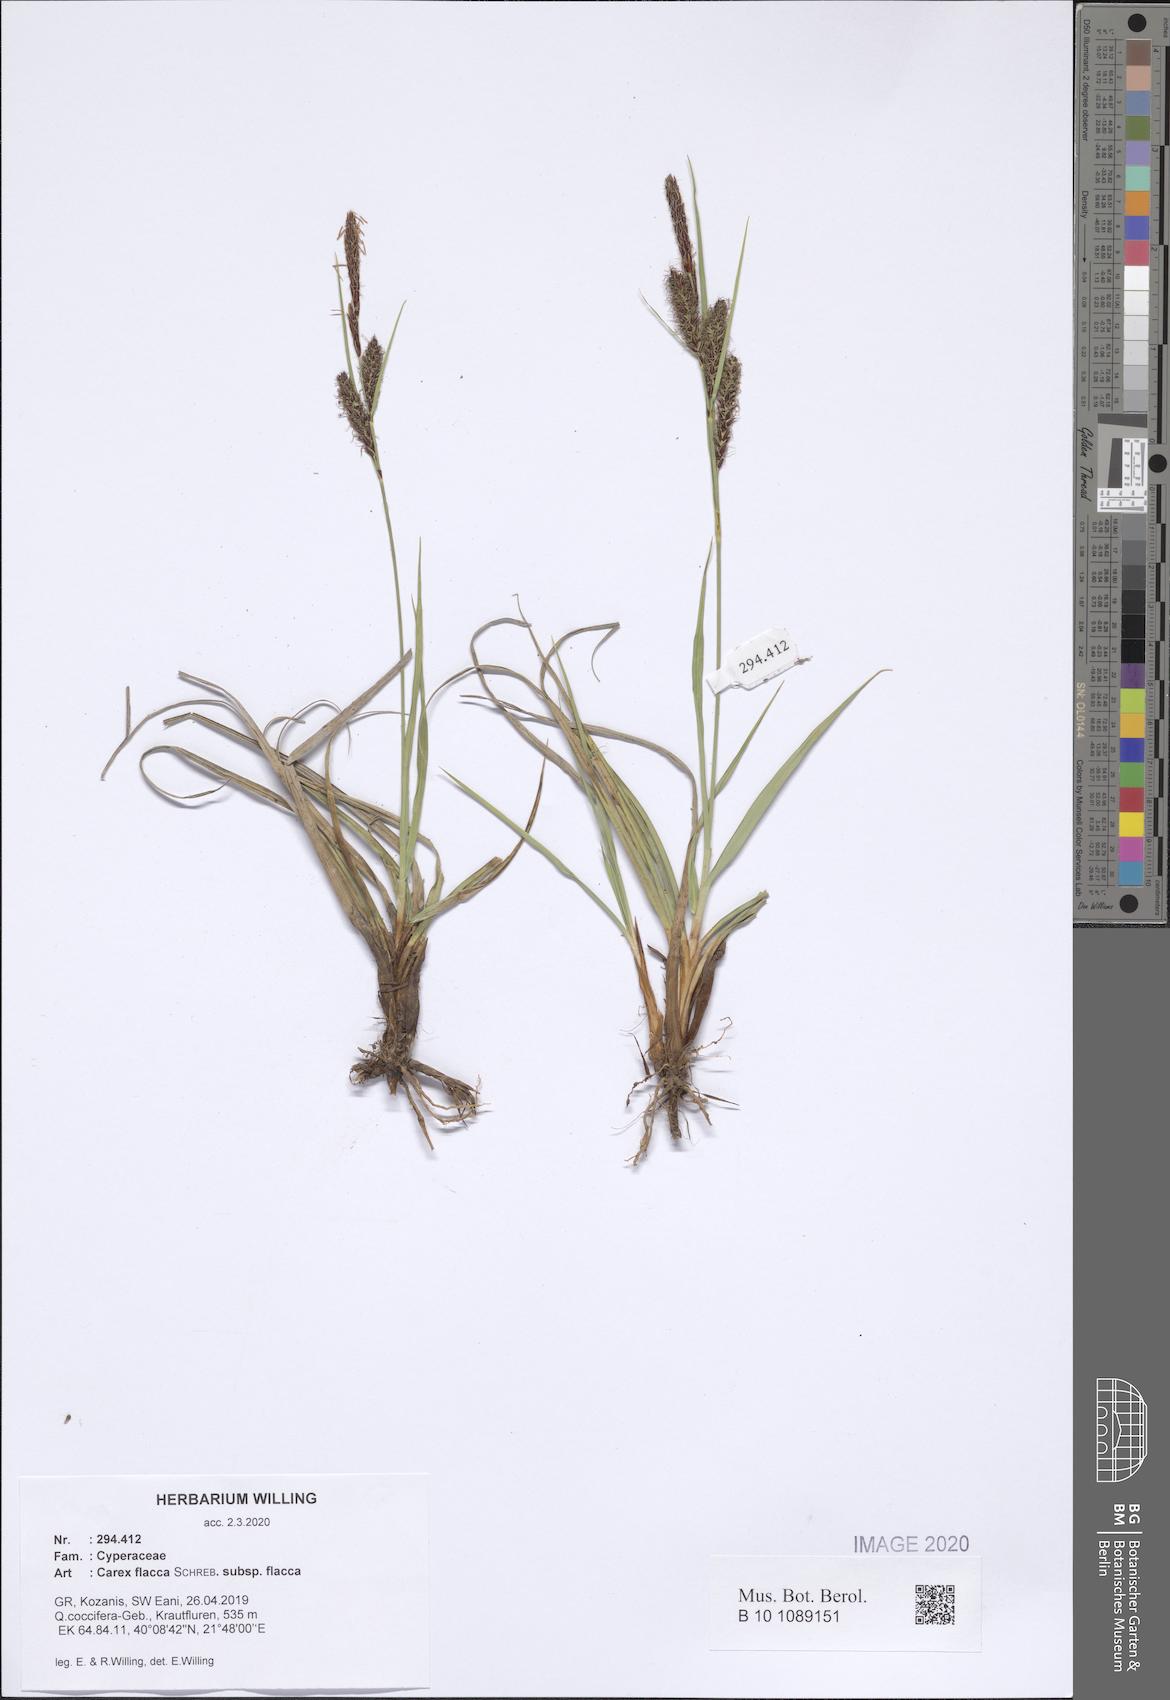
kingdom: Plantae
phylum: Tracheophyta
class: Liliopsida
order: Poales
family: Cyperaceae
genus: Carex
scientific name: Carex flacca
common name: Glaucous sedge
